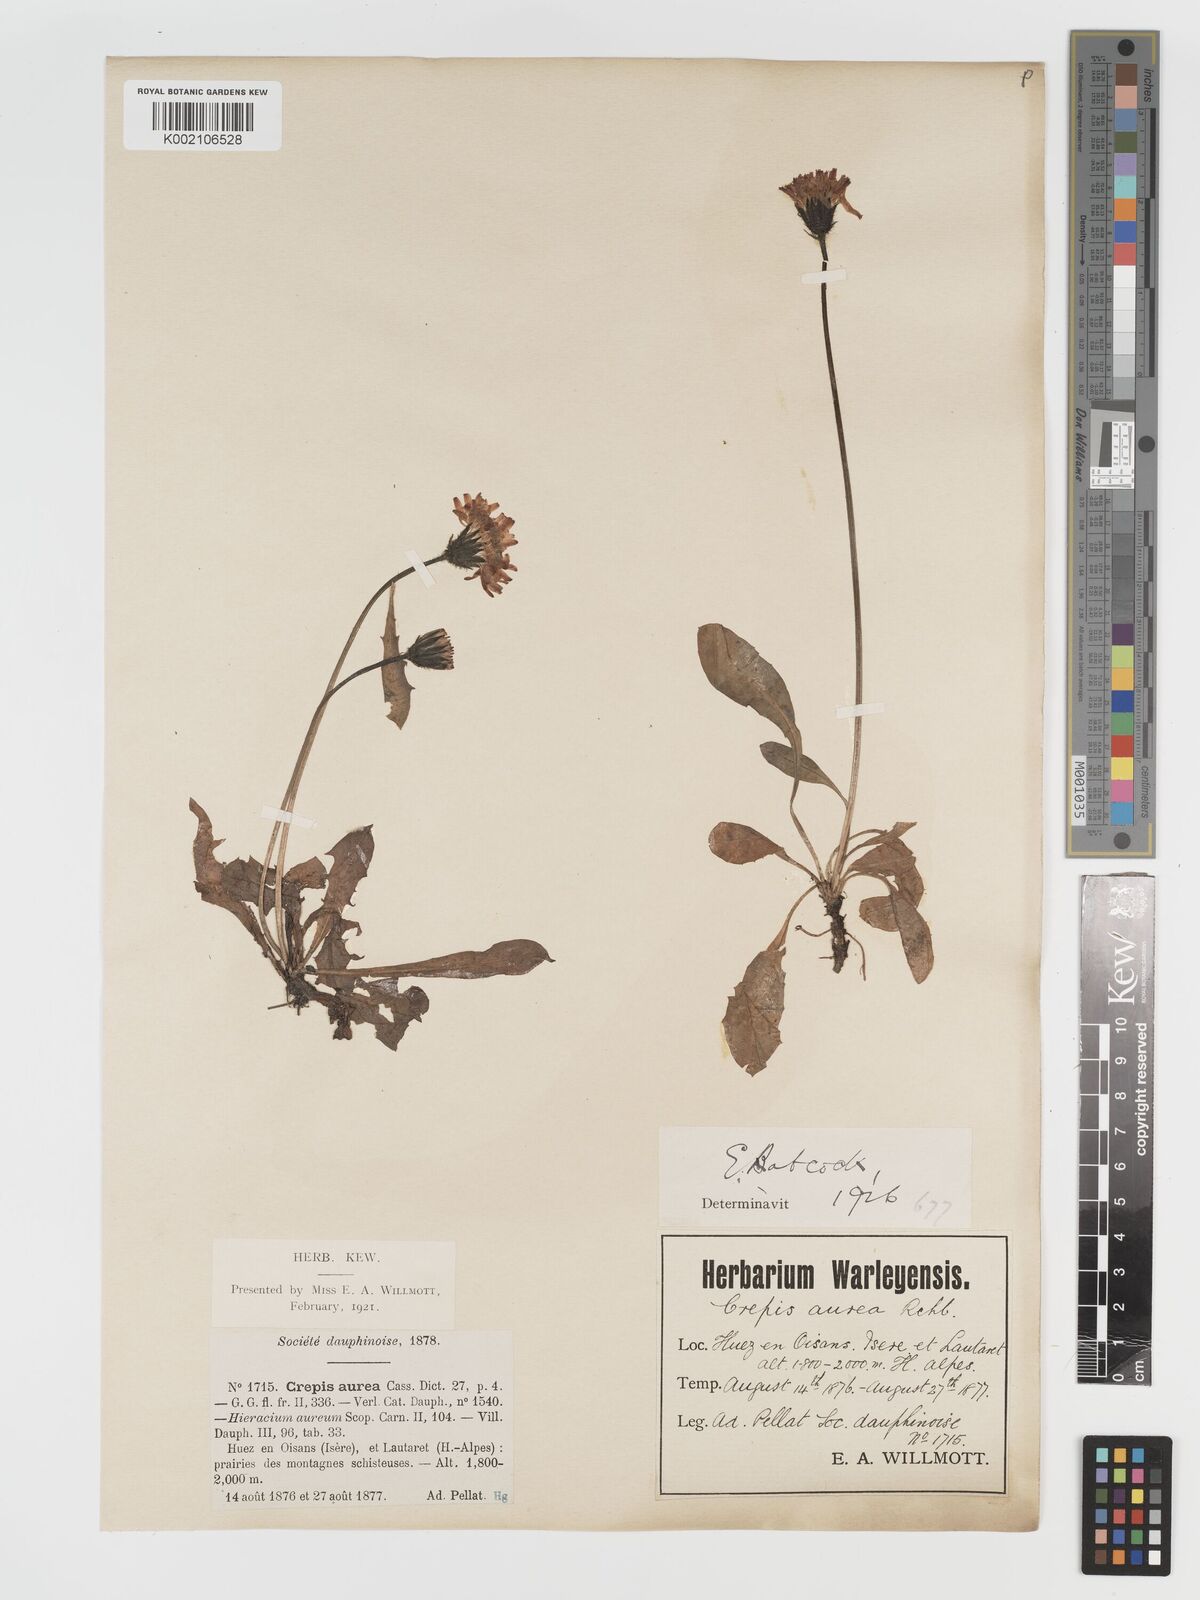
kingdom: Plantae
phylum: Tracheophyta
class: Magnoliopsida
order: Asterales
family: Asteraceae
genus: Crepis
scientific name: Crepis aurea
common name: Golden hawk's-beard
